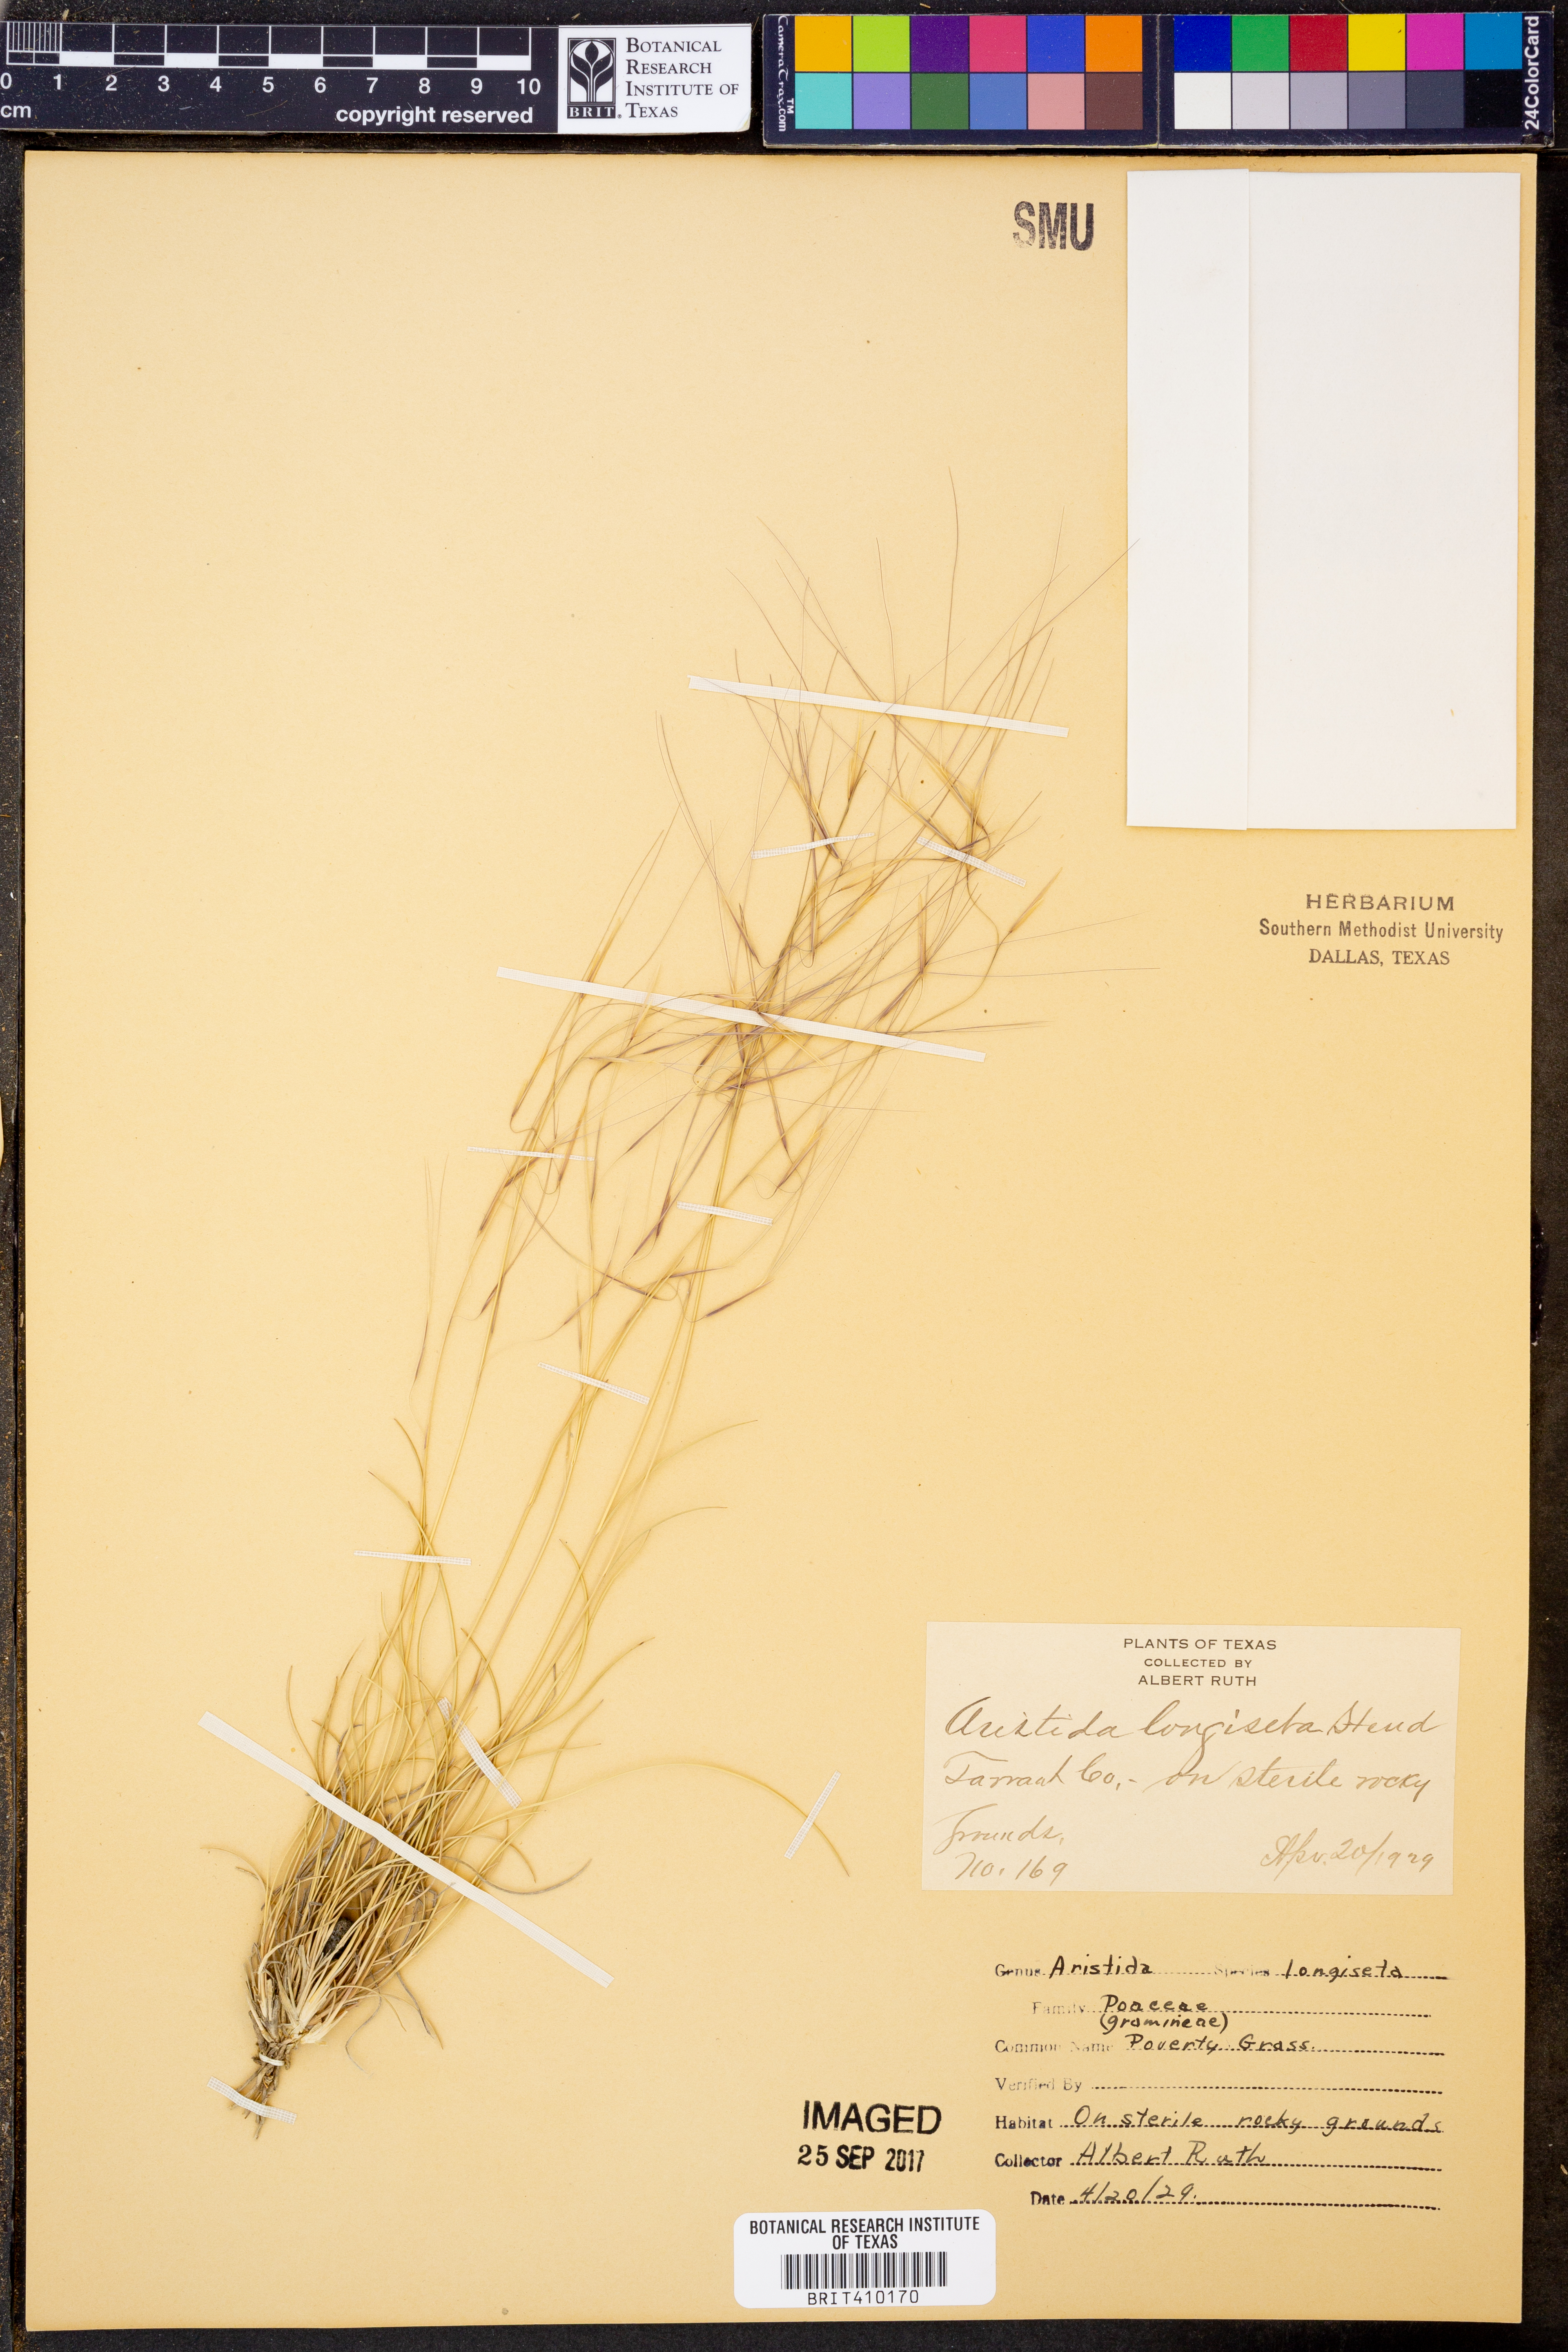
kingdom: Plantae
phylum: Tracheophyta
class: Liliopsida
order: Poales
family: Poaceae
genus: Aristida
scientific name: Aristida longiseta
